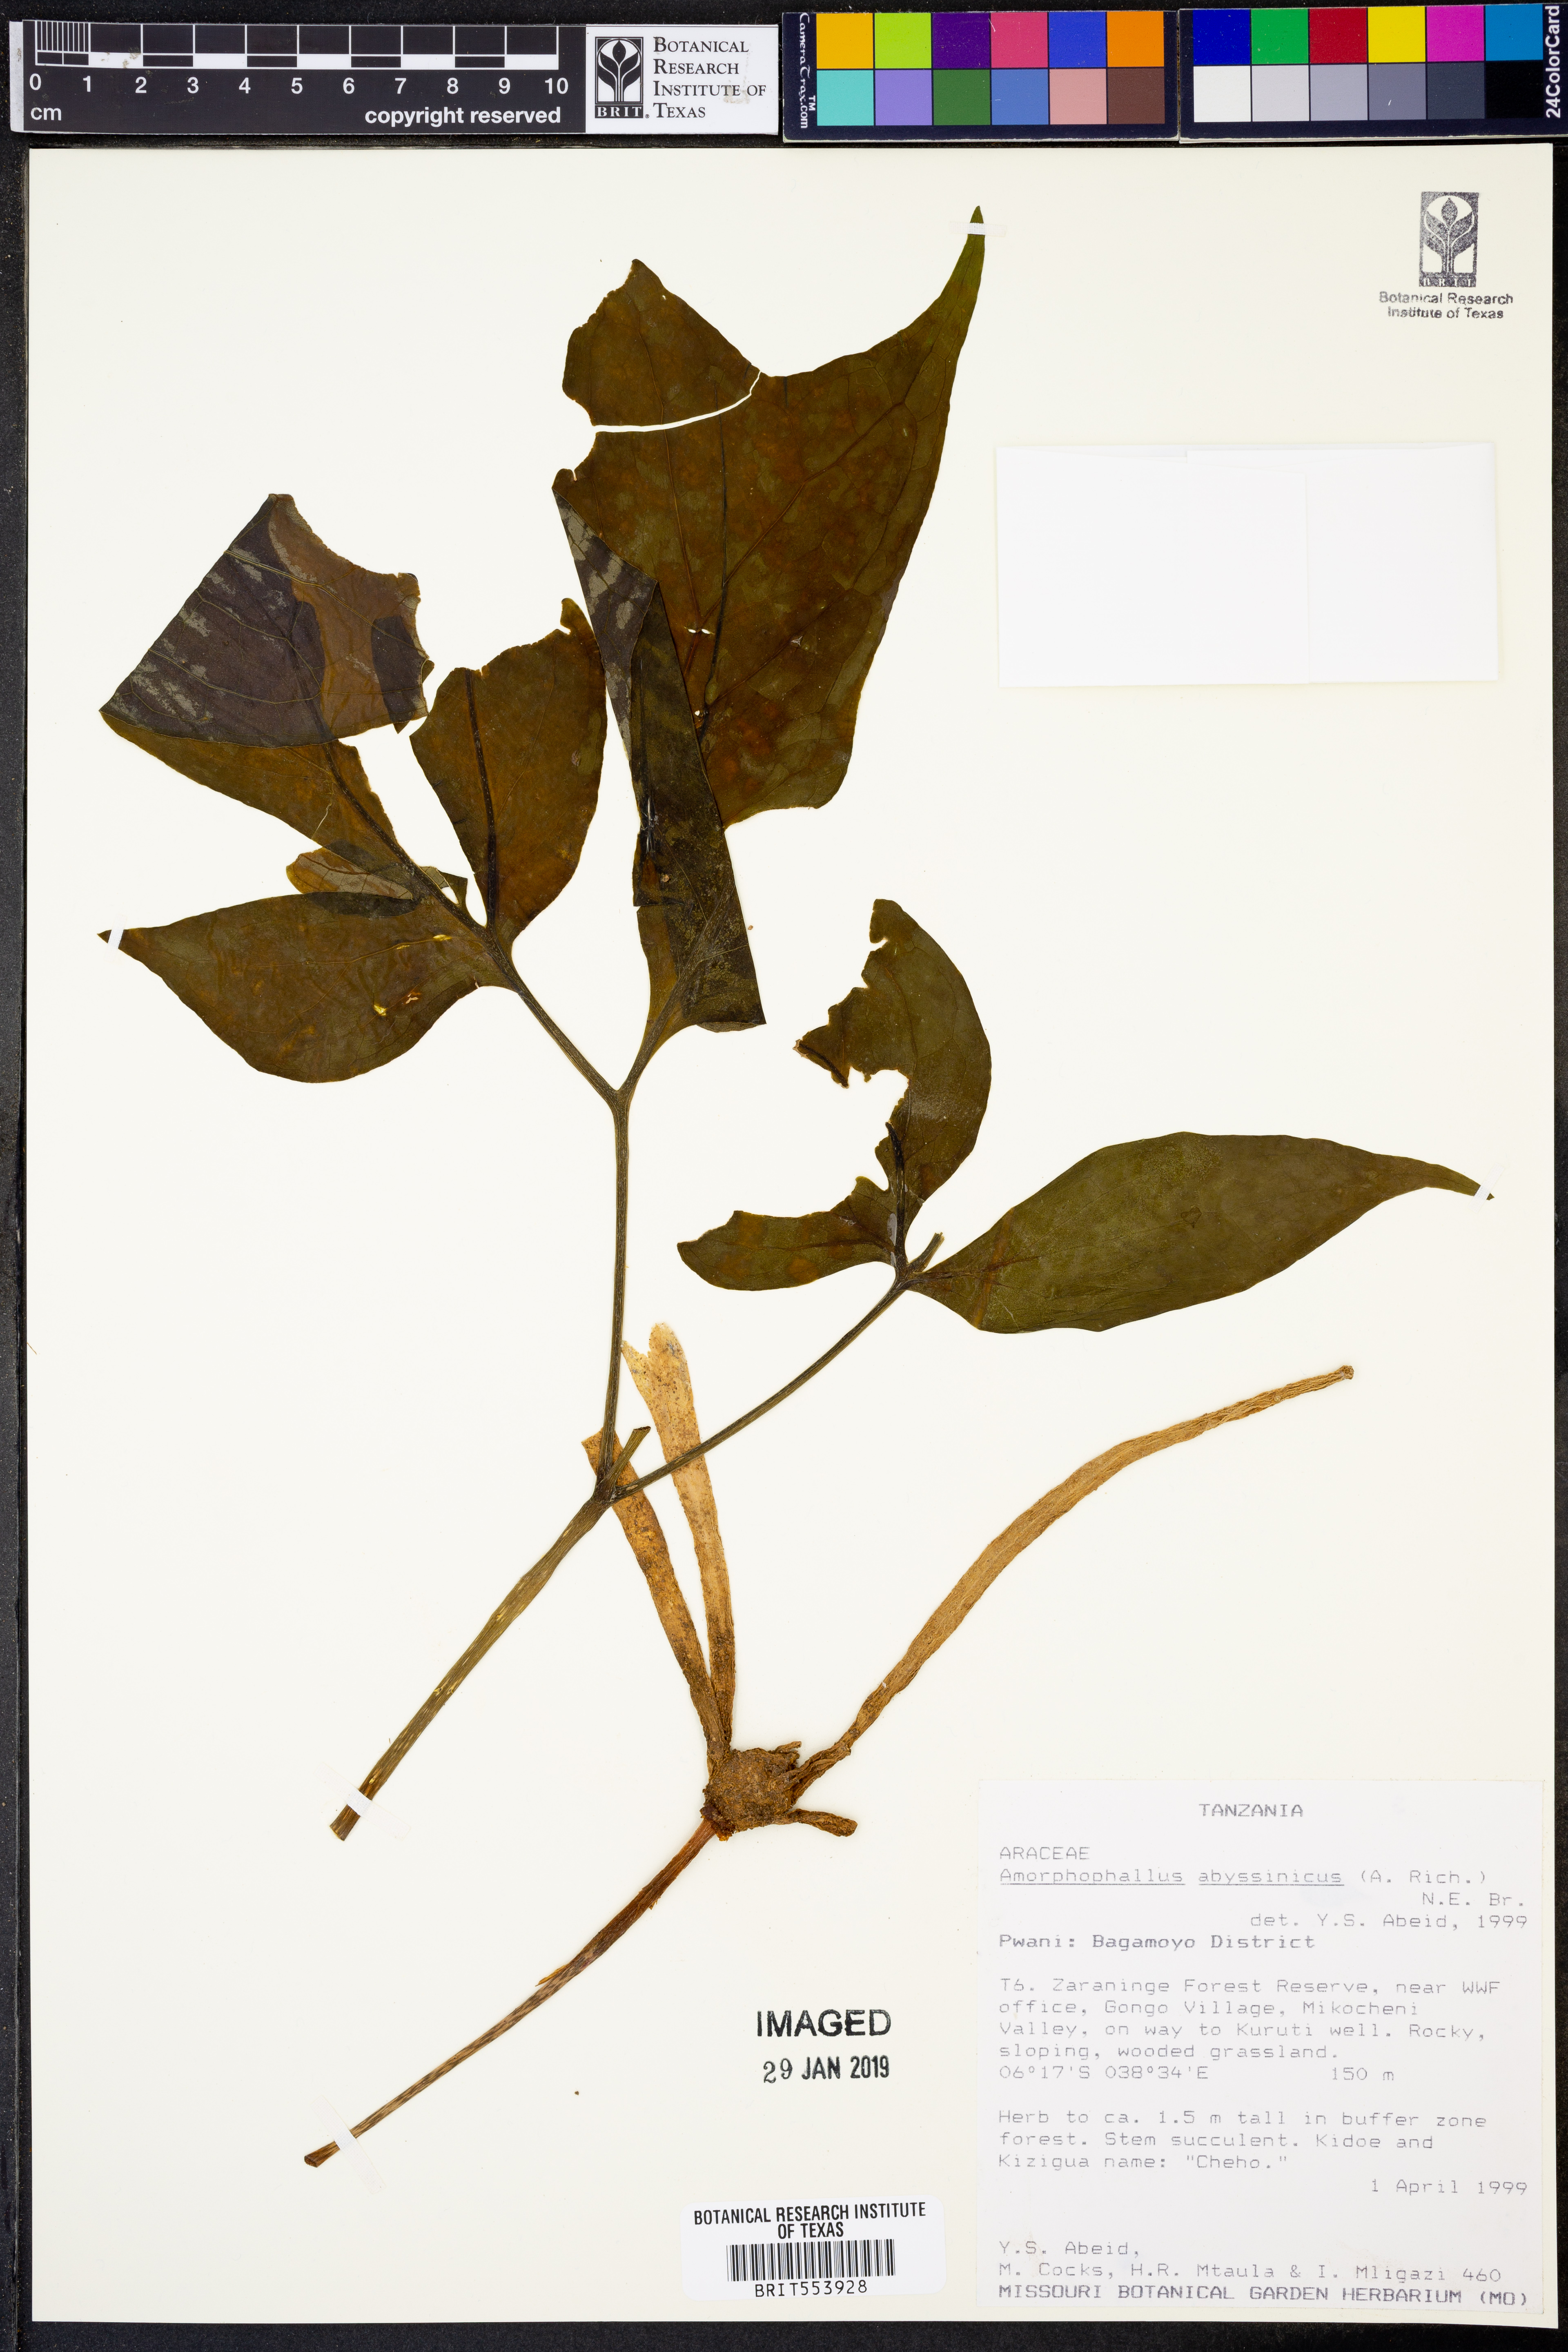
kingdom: Plantae
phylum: Tracheophyta
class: Liliopsida
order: Alismatales
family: Araceae
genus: Amorphophallus
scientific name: Amorphophallus abyssinicus
